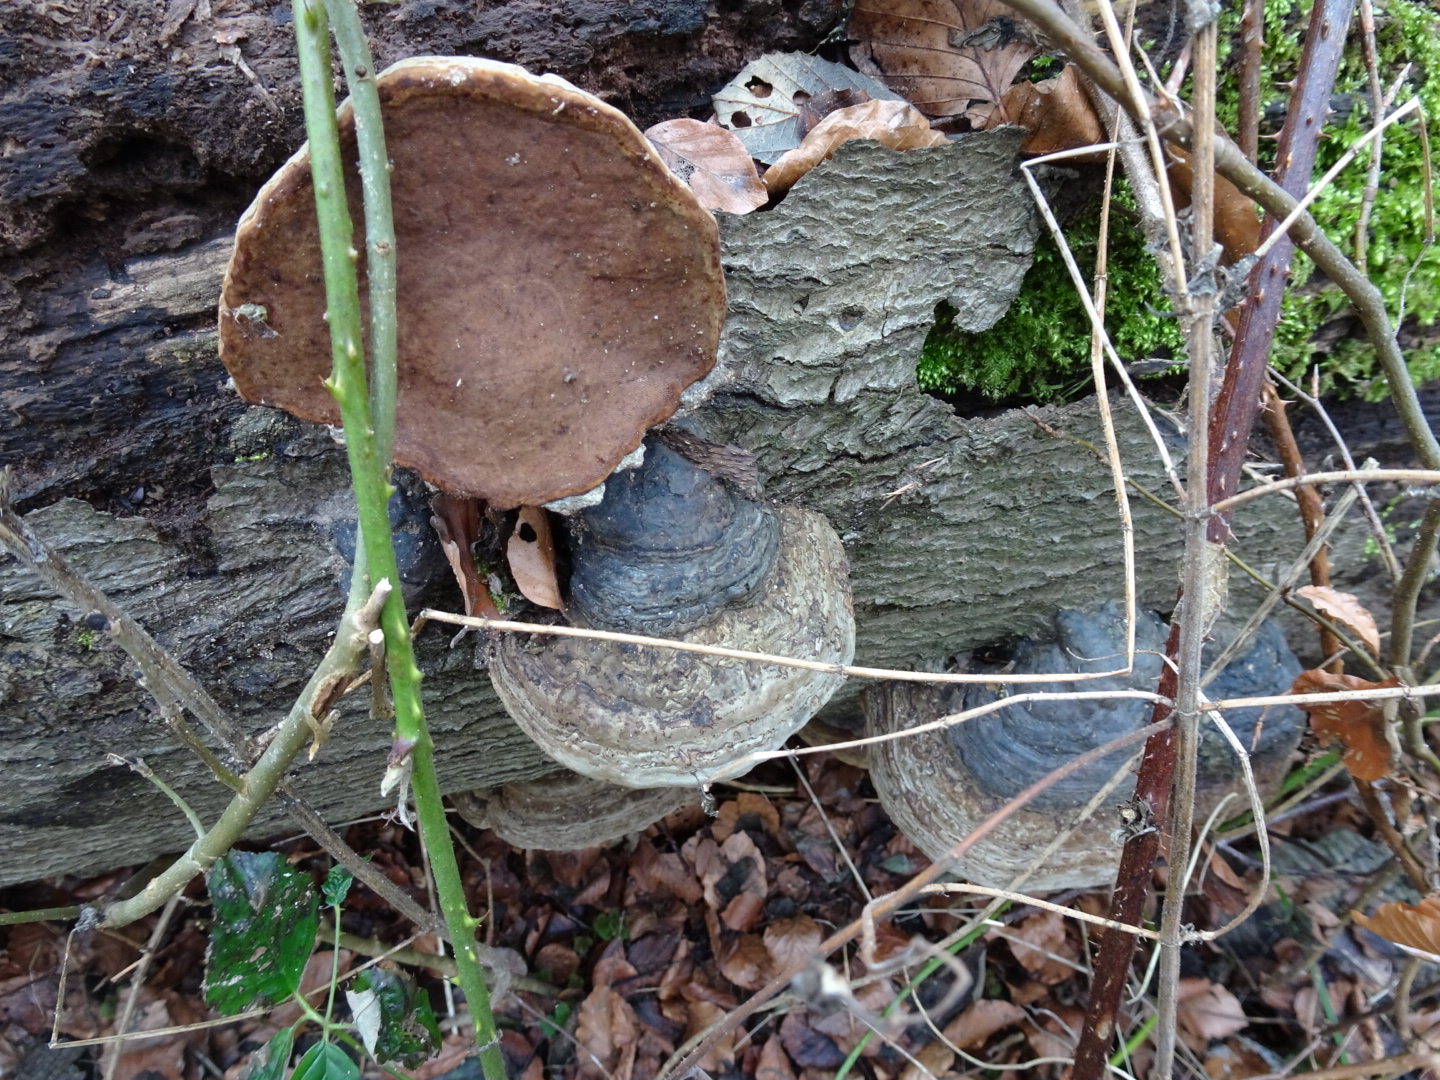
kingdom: Fungi
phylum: Basidiomycota
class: Agaricomycetes
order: Polyporales
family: Polyporaceae
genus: Fomes
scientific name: Fomes fomentarius
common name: tøndersvamp
